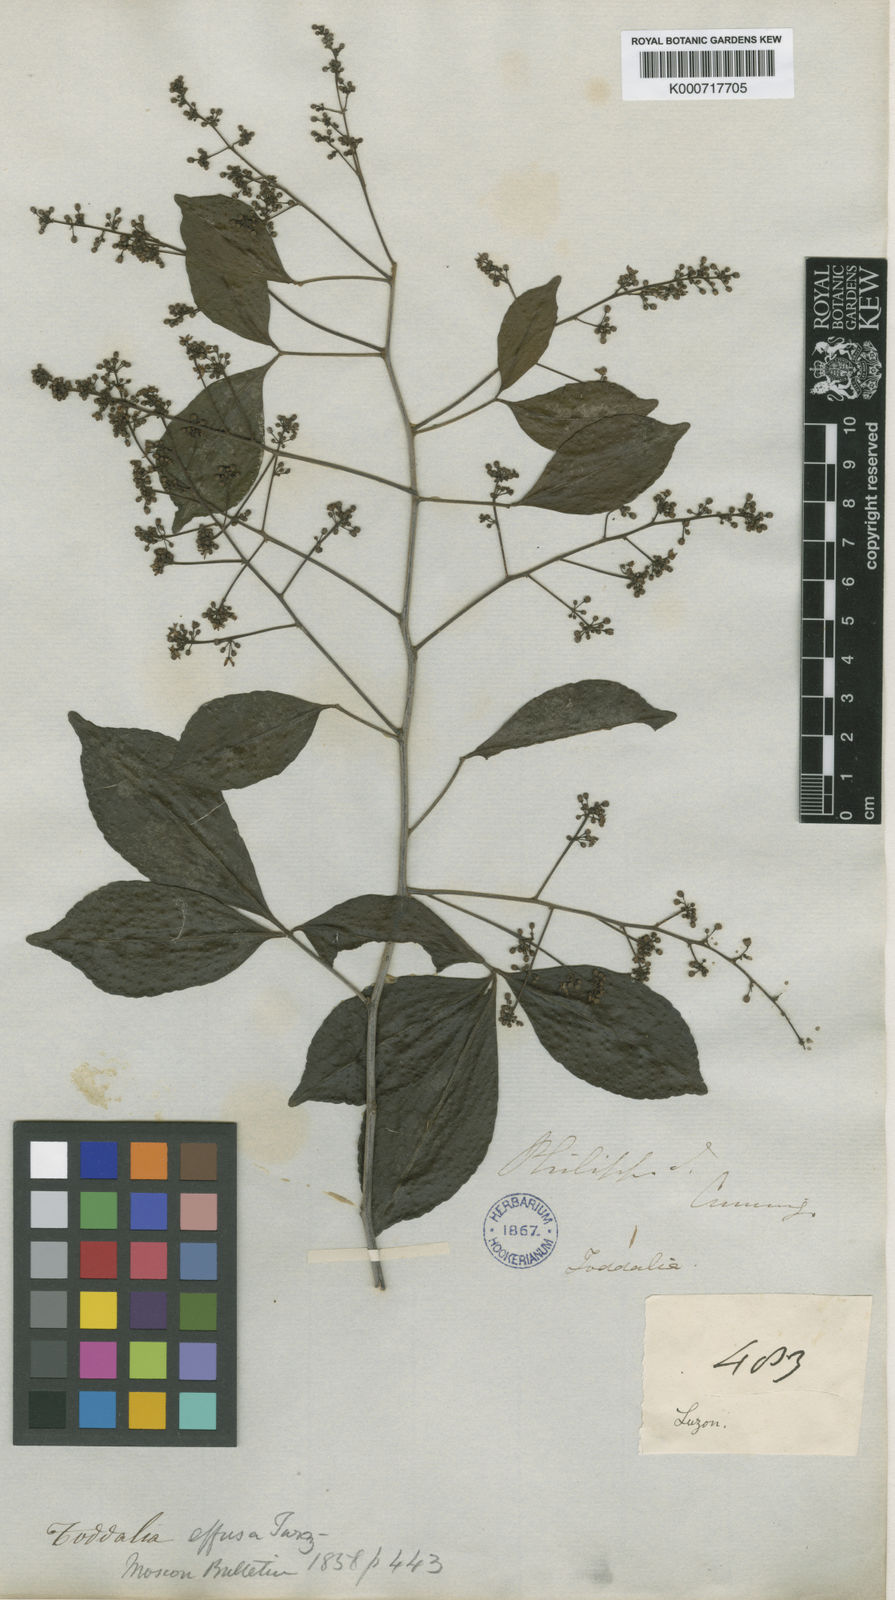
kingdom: Plantae
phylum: Tracheophyta
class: Magnoliopsida
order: Sapindales
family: Rutaceae
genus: Zanthoxylum
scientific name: Zanthoxylum asiaticum
